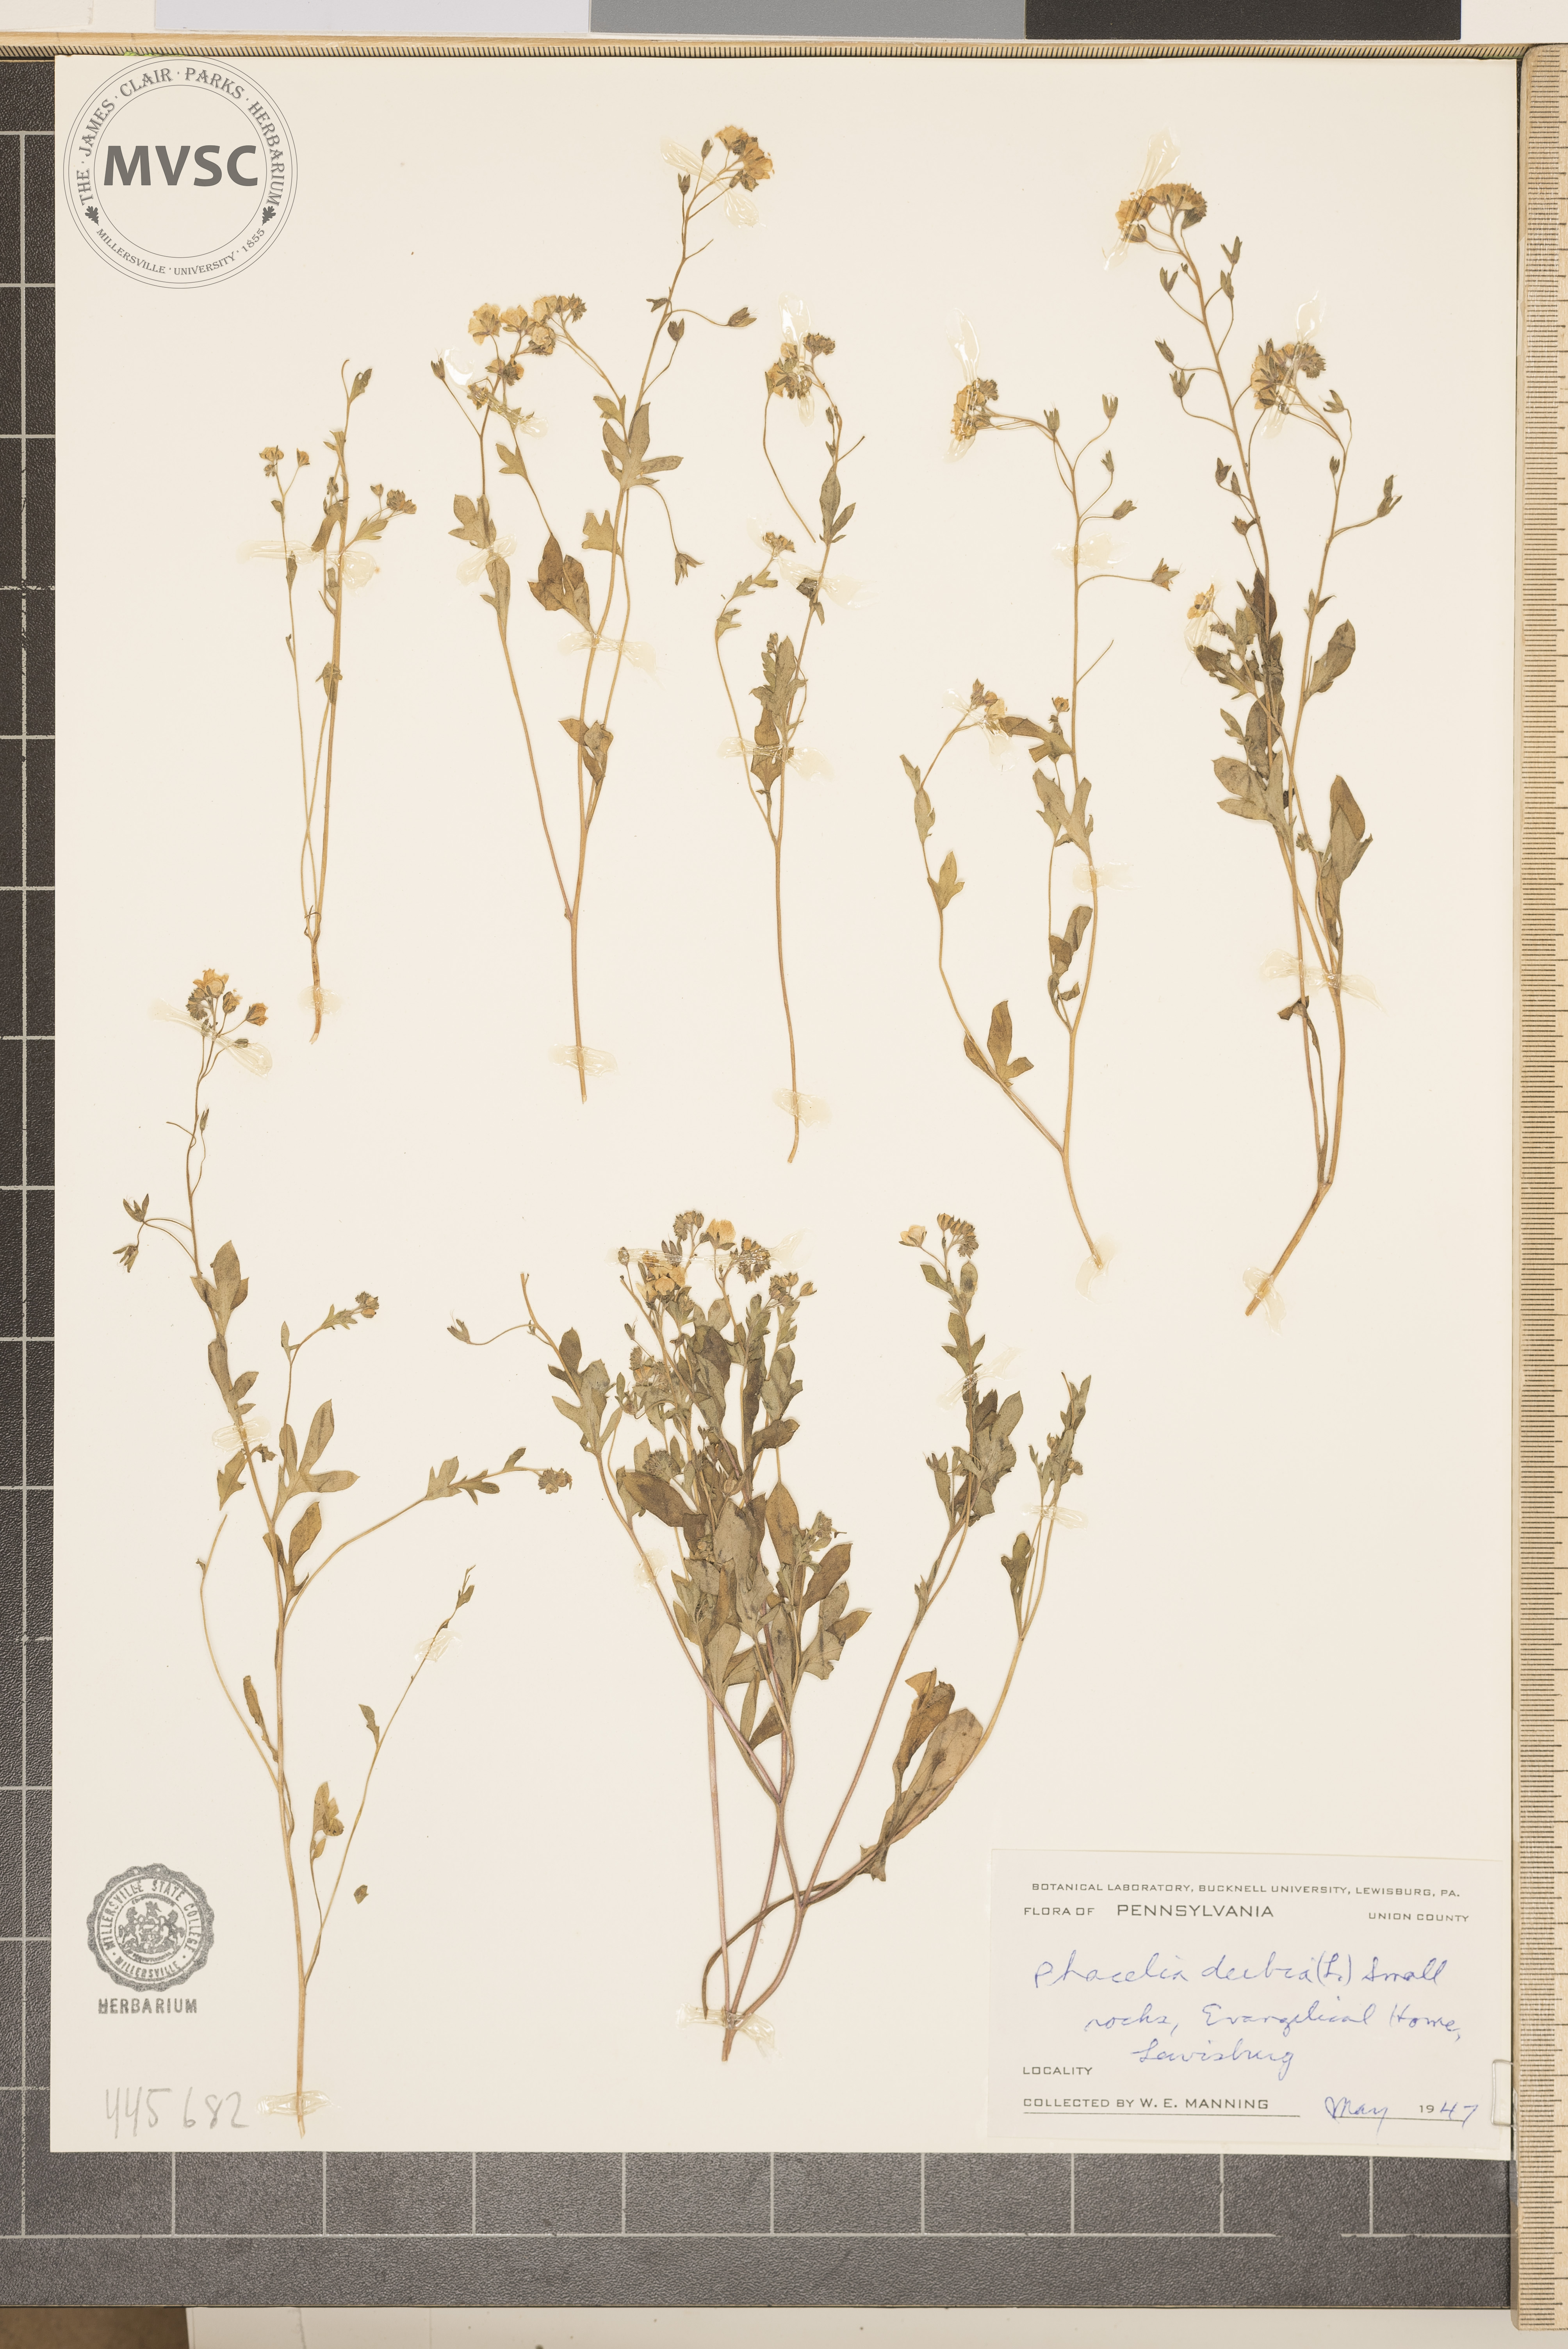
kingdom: Plantae
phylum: Tracheophyta
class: Magnoliopsida
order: Boraginales
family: Hydrophyllaceae
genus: Phacelia
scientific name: Phacelia dubia
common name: Appalachian phacelia
